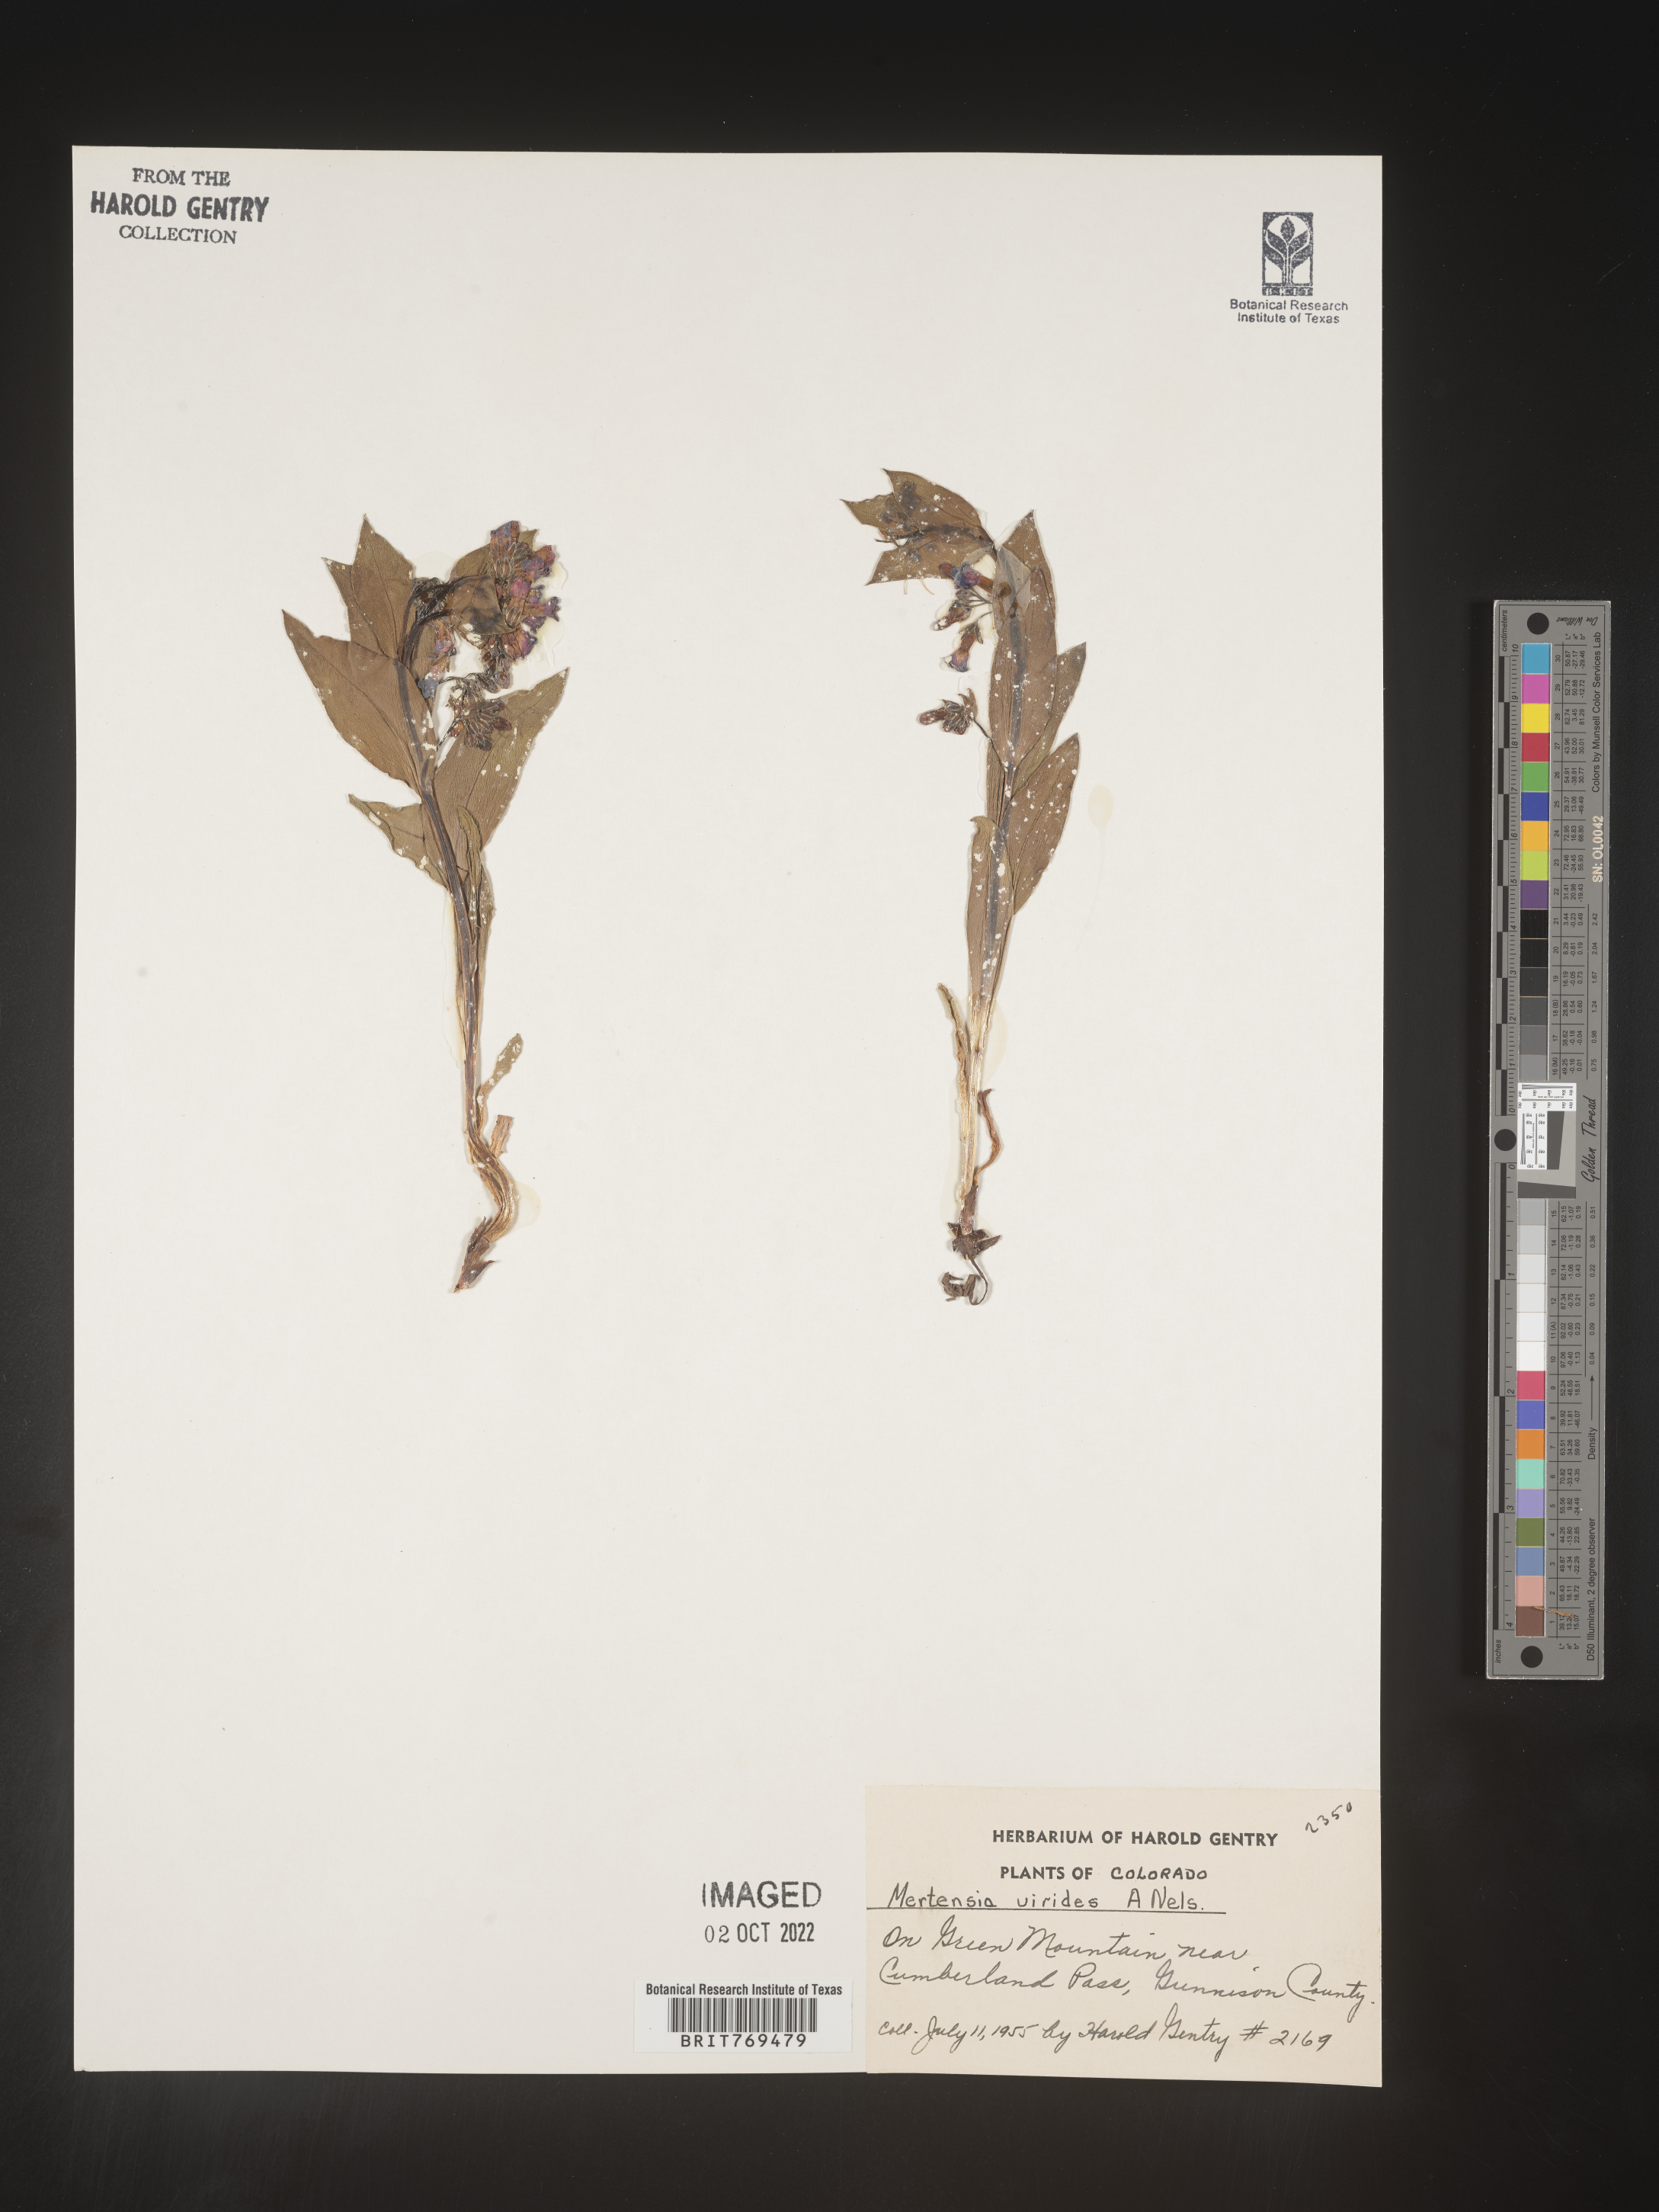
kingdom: Plantae
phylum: Tracheophyta
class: Magnoliopsida
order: Boraginales
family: Boraginaceae
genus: Mertensia
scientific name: Mertensia viridis
